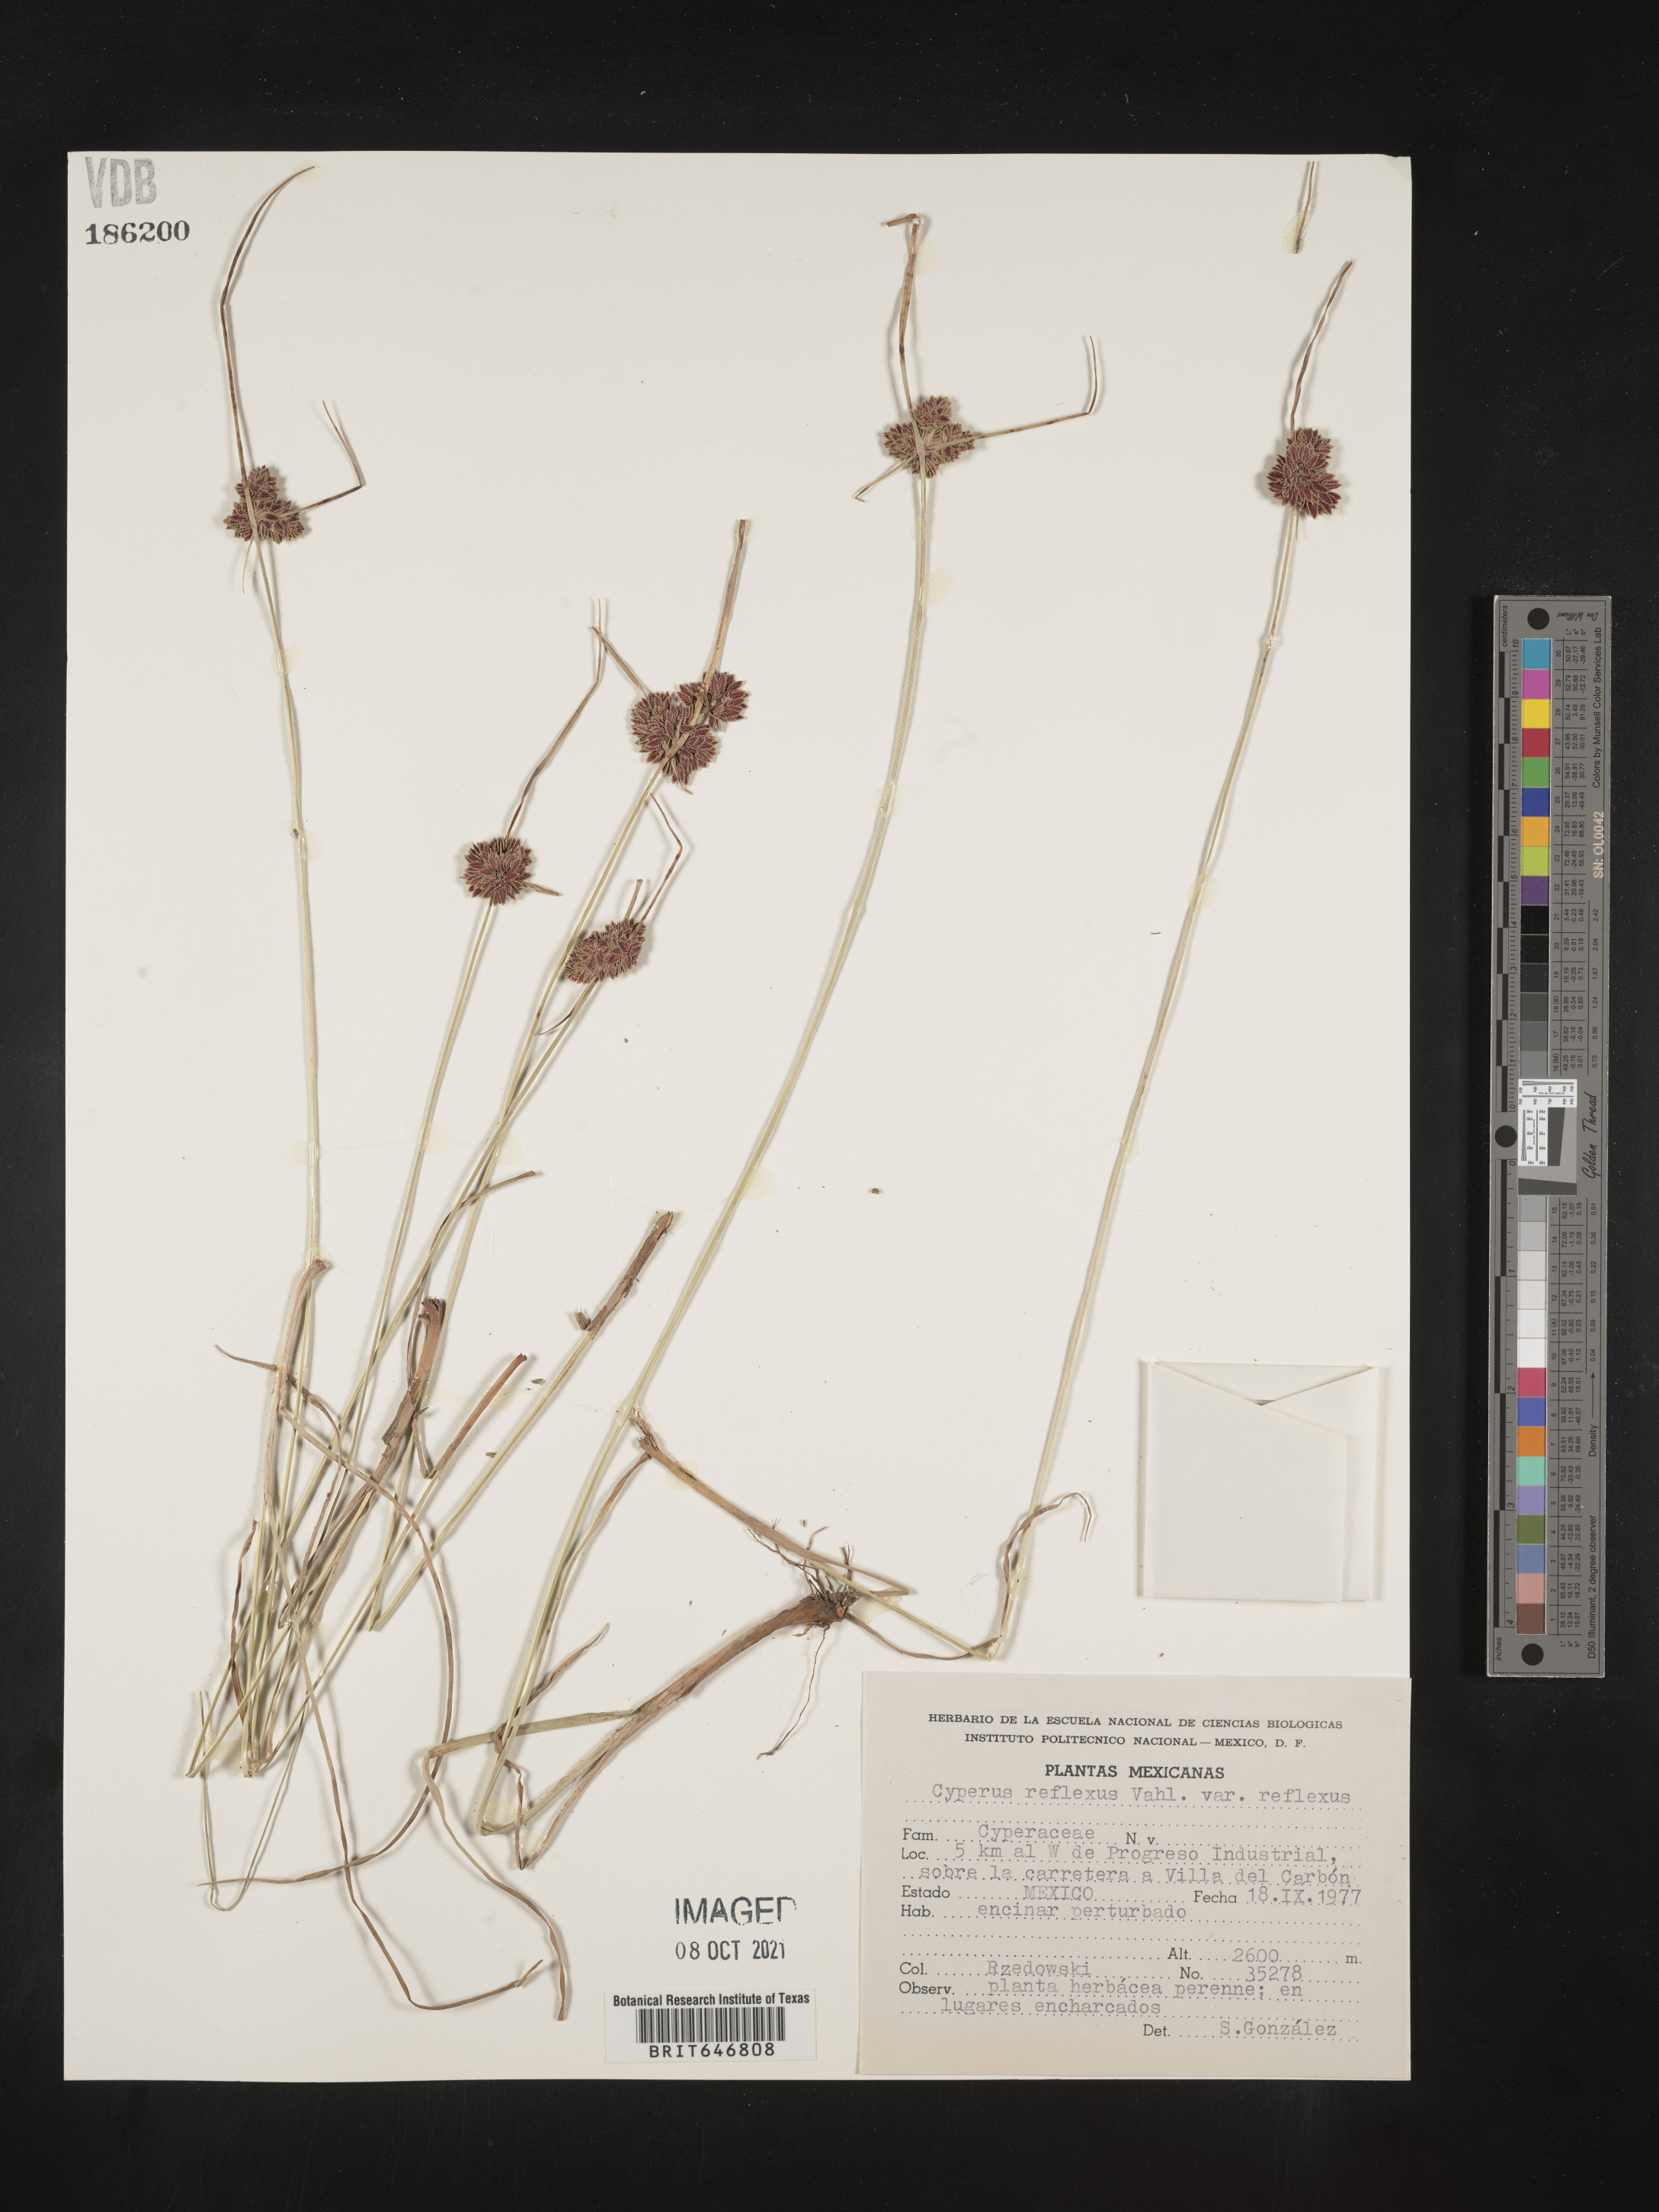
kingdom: Plantae
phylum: Tracheophyta
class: Liliopsida
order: Poales
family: Cyperaceae
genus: Cyperus
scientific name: Cyperus
